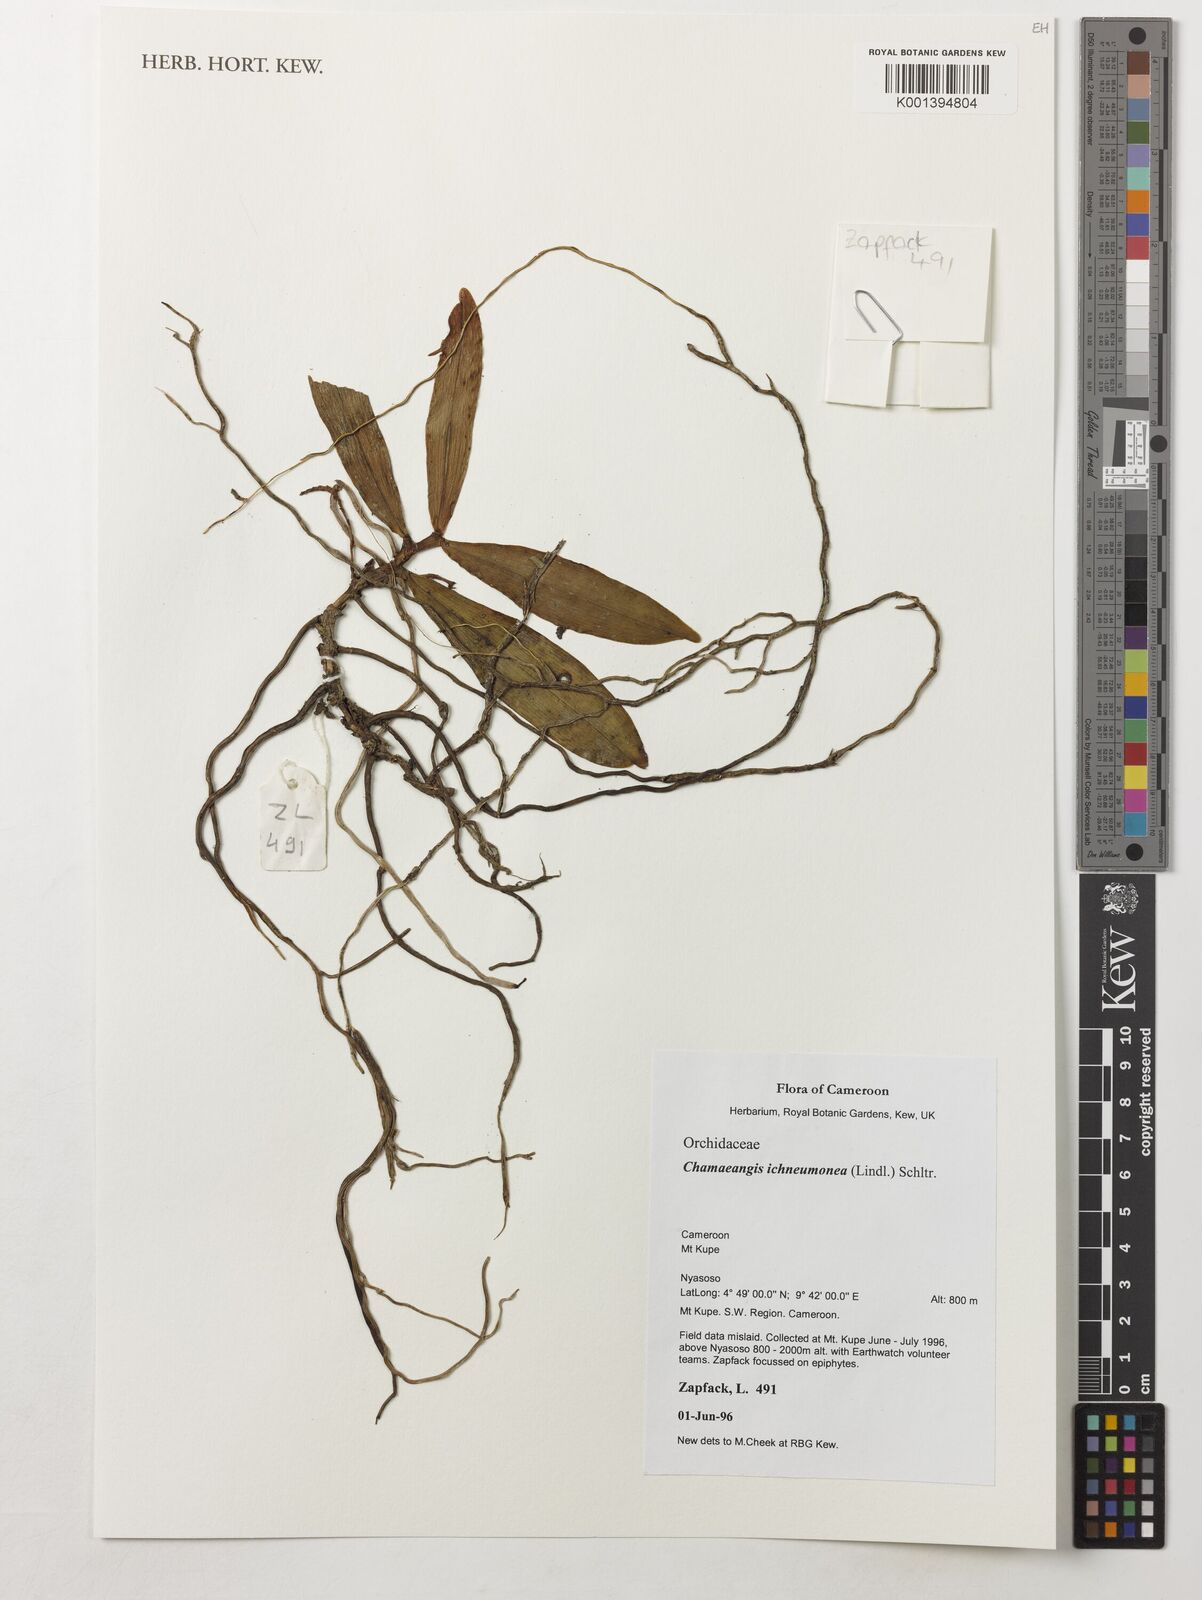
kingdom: Plantae
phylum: Tracheophyta
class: Liliopsida
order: Asparagales
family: Orchidaceae
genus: Diaphananthe
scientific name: Diaphananthe ichneumonea
